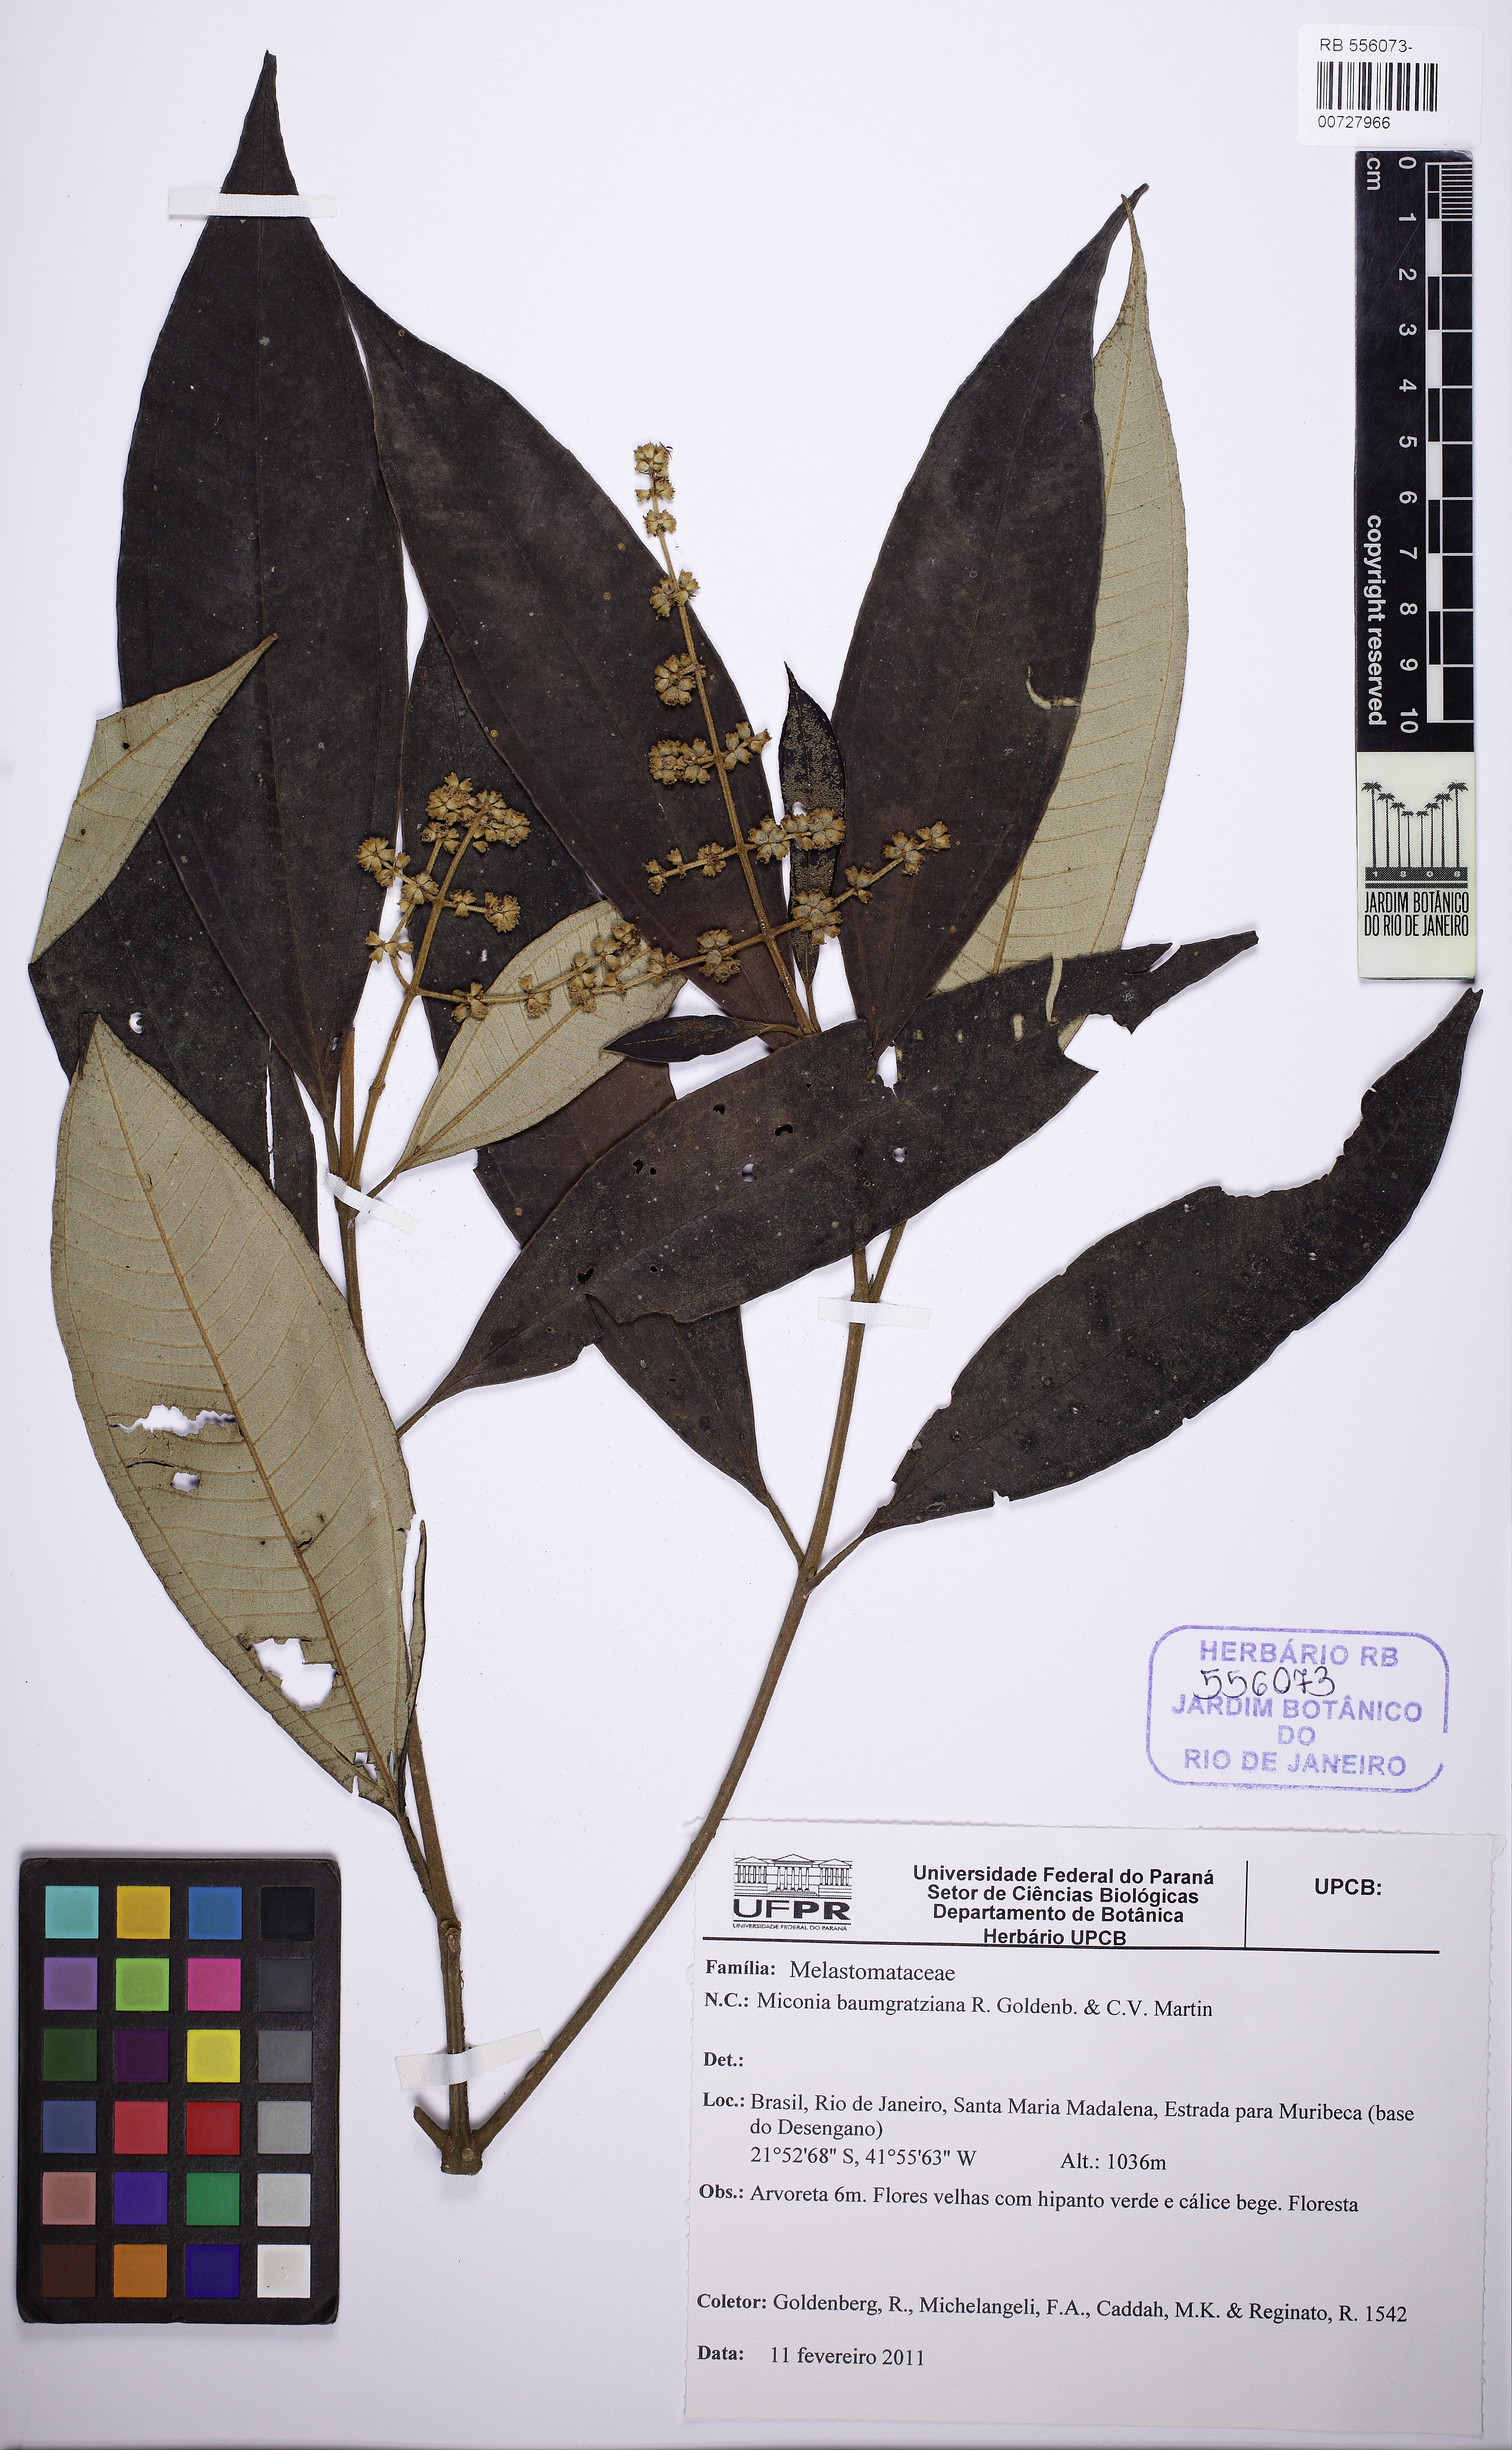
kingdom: Plantae
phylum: Tracheophyta
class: Magnoliopsida
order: Myrtales
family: Melastomataceae
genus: Miconia
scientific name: Miconia baumgratziana
